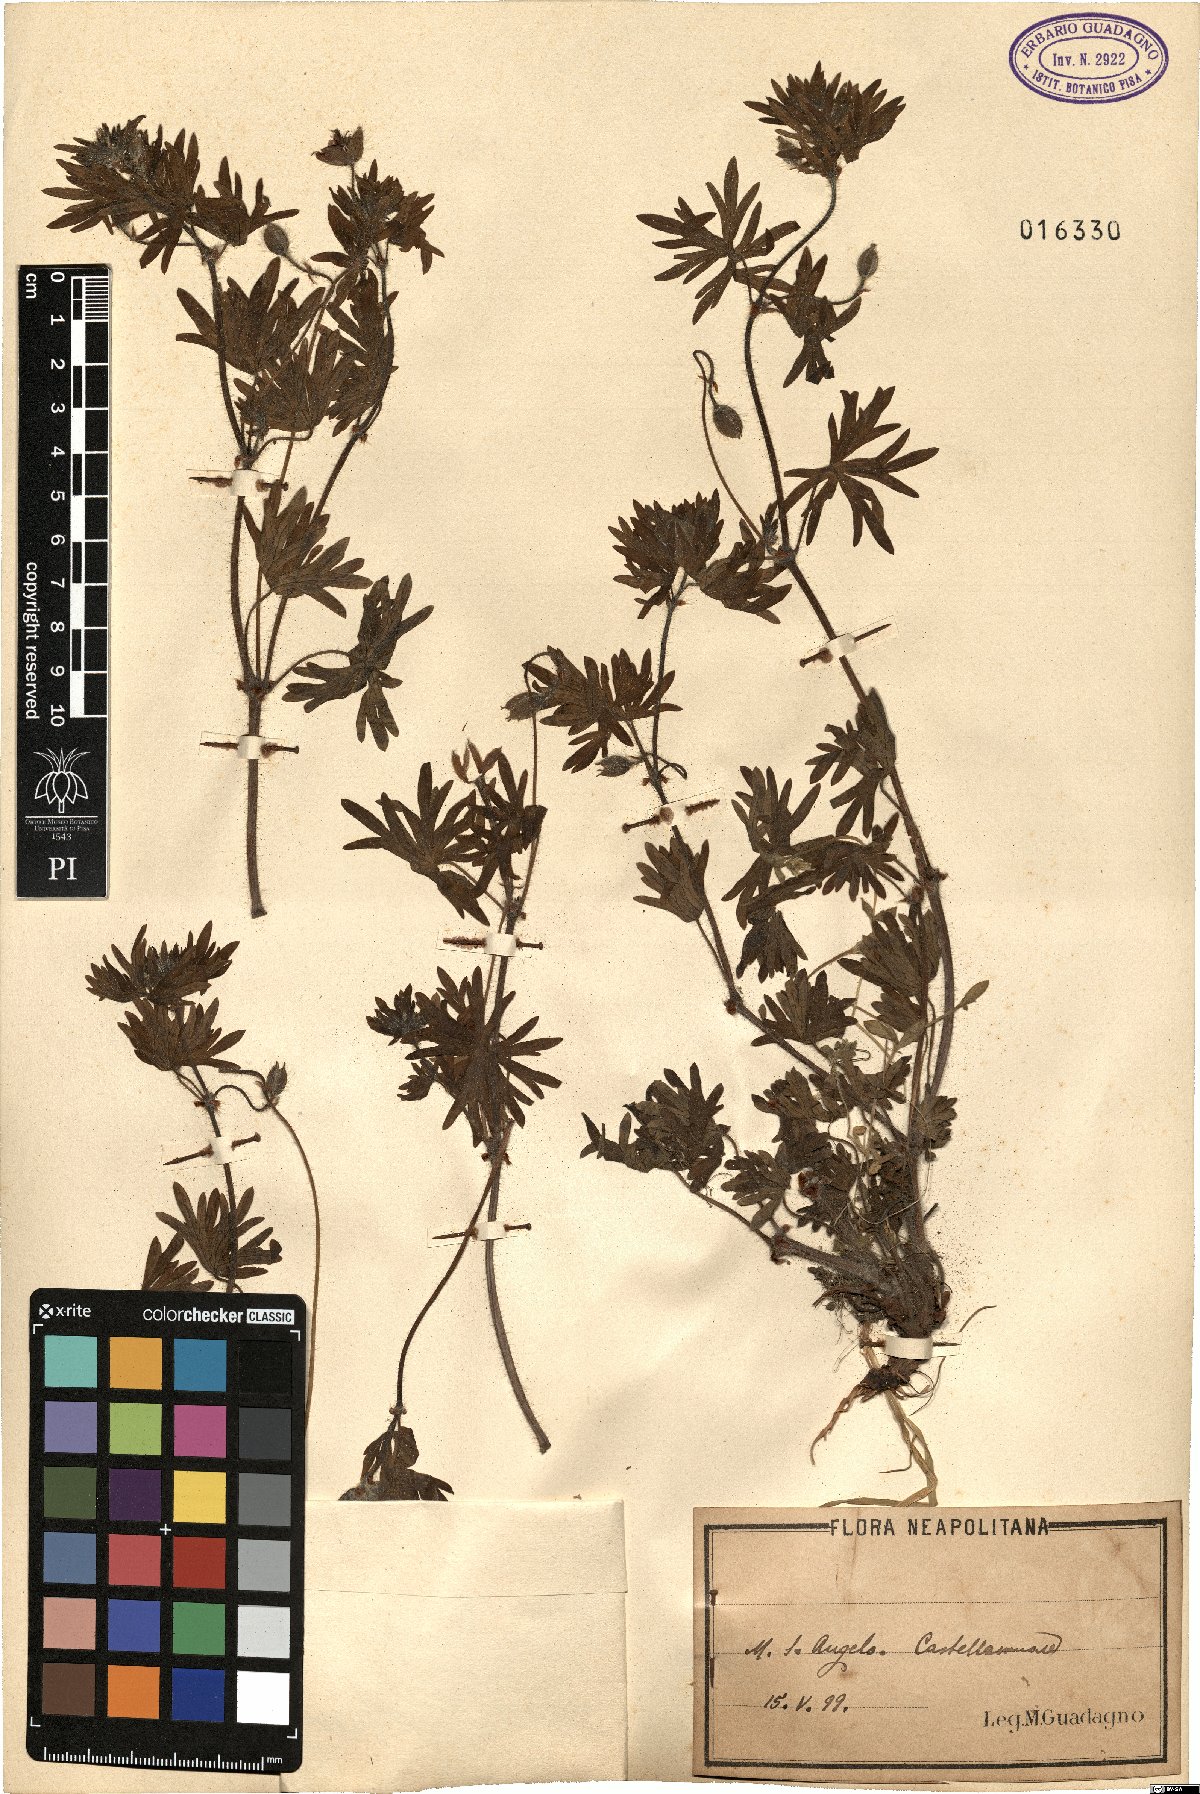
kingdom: Plantae
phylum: Tracheophyta
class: Magnoliopsida
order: Geraniales
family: Geraniaceae
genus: Geranium
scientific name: Geranium
